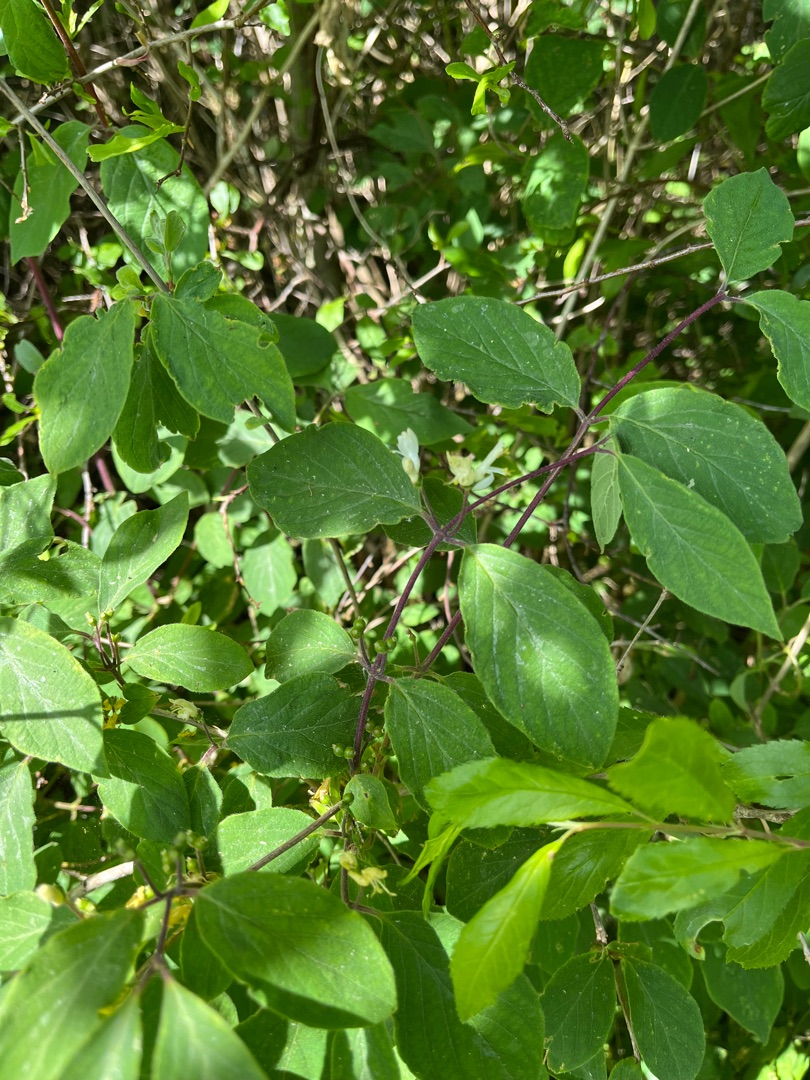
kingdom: Plantae
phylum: Tracheophyta
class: Magnoliopsida
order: Dipsacales
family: Caprifoliaceae
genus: Lonicera
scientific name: Lonicera xylosteum
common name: Dunet gedeblad
